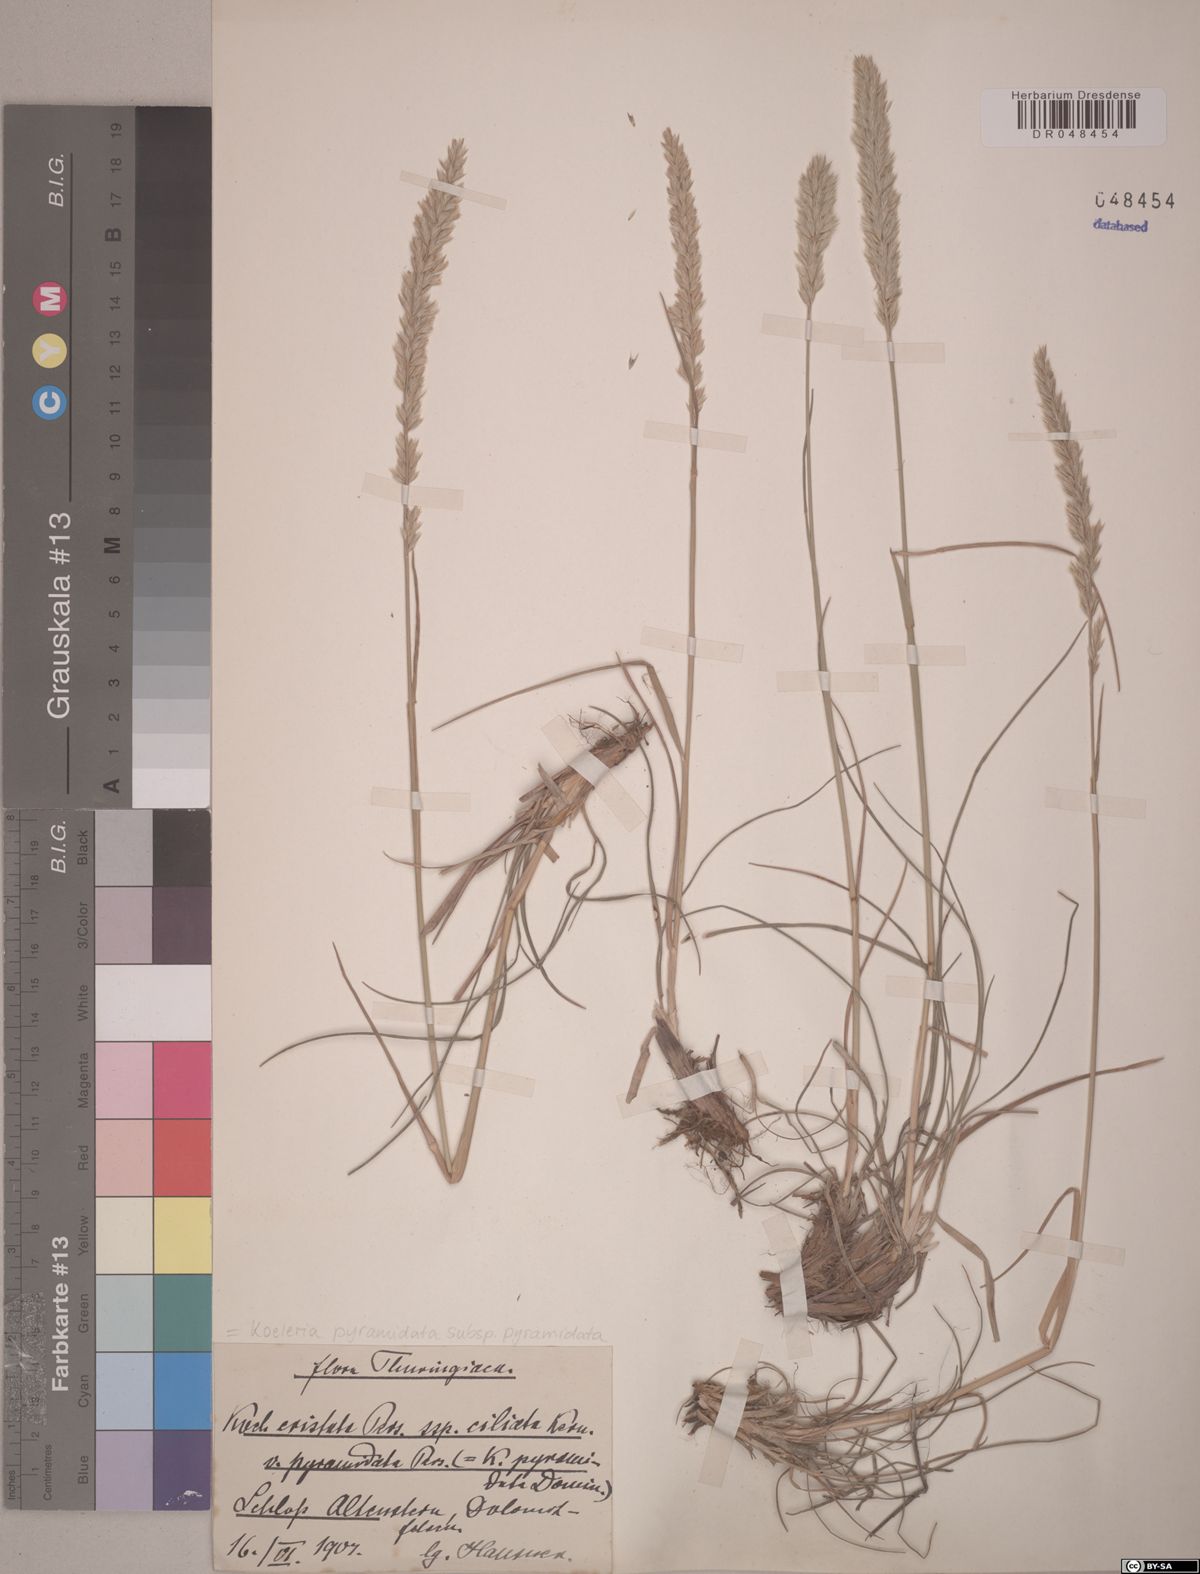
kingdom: Plantae
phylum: Tracheophyta
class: Liliopsida
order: Poales
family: Poaceae
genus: Koeleria
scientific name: Koeleria pyramidata
